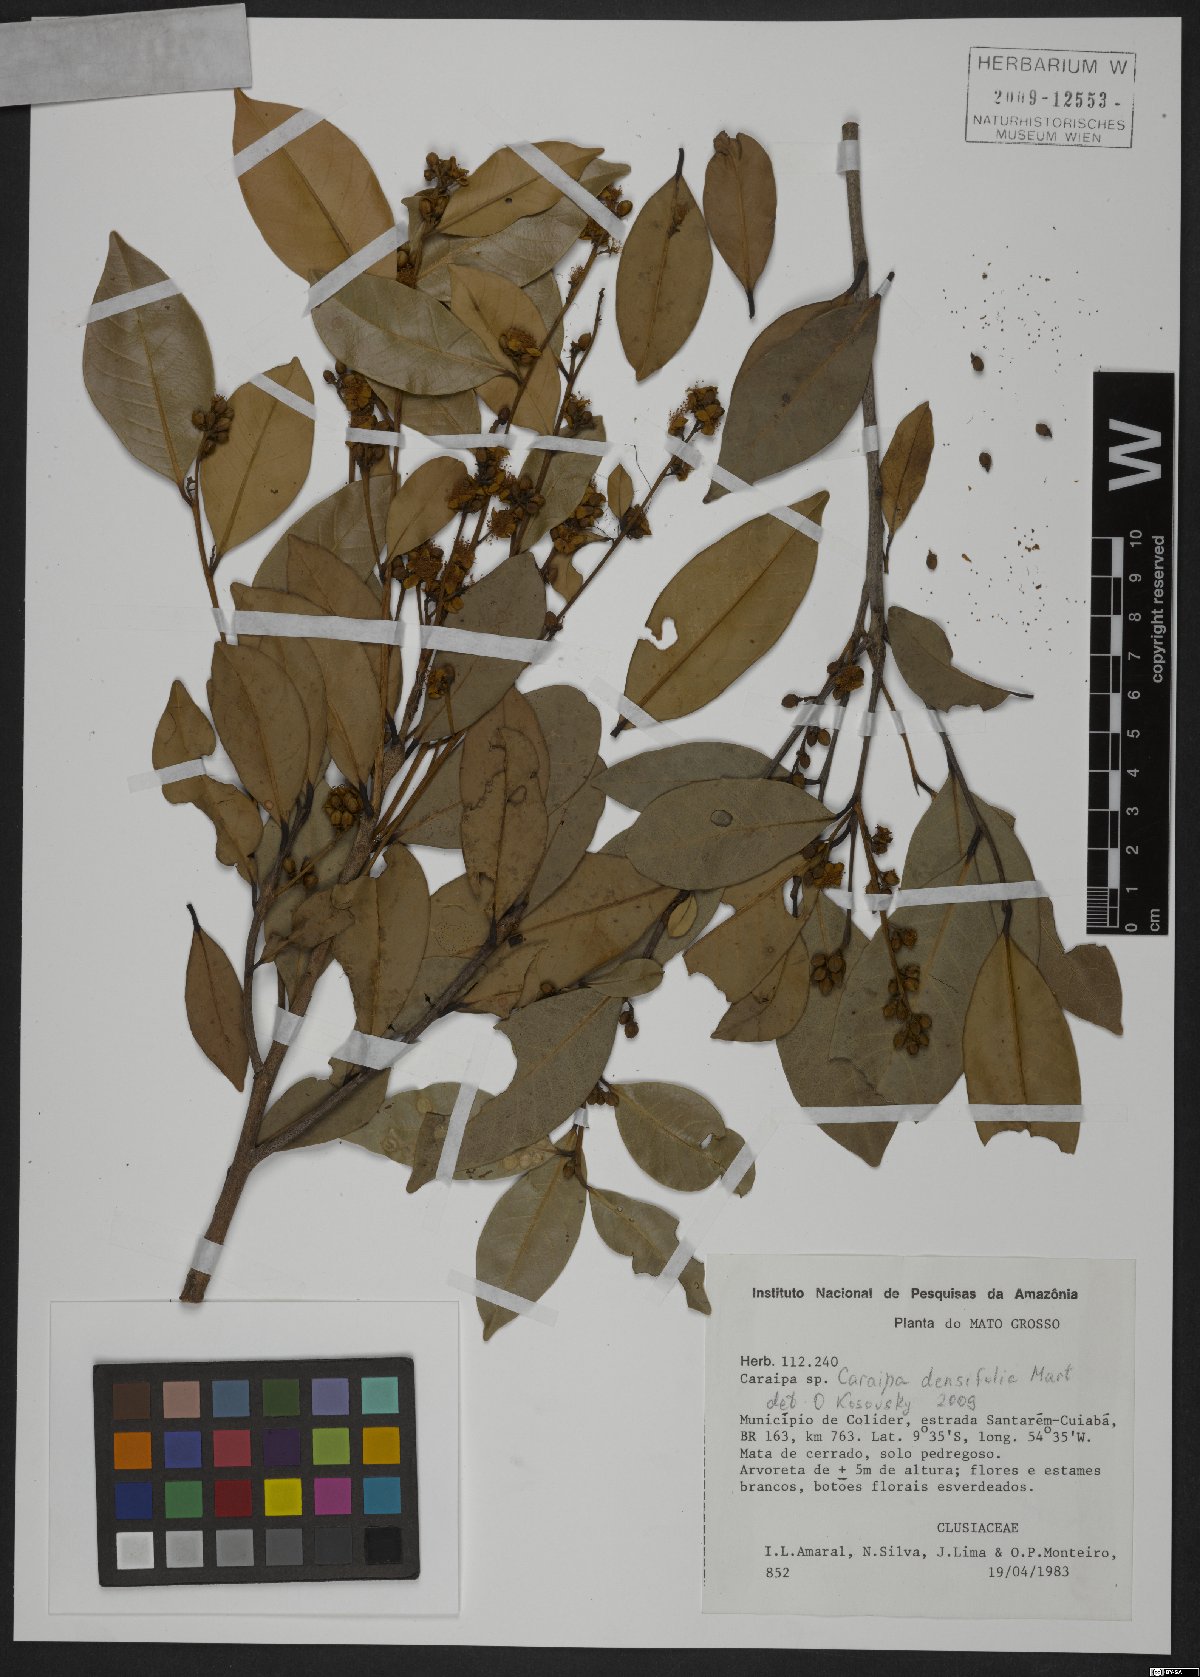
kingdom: Plantae
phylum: Tracheophyta
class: Magnoliopsida
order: Malpighiales
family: Calophyllaceae
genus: Caraipa
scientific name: Caraipa densifolia
